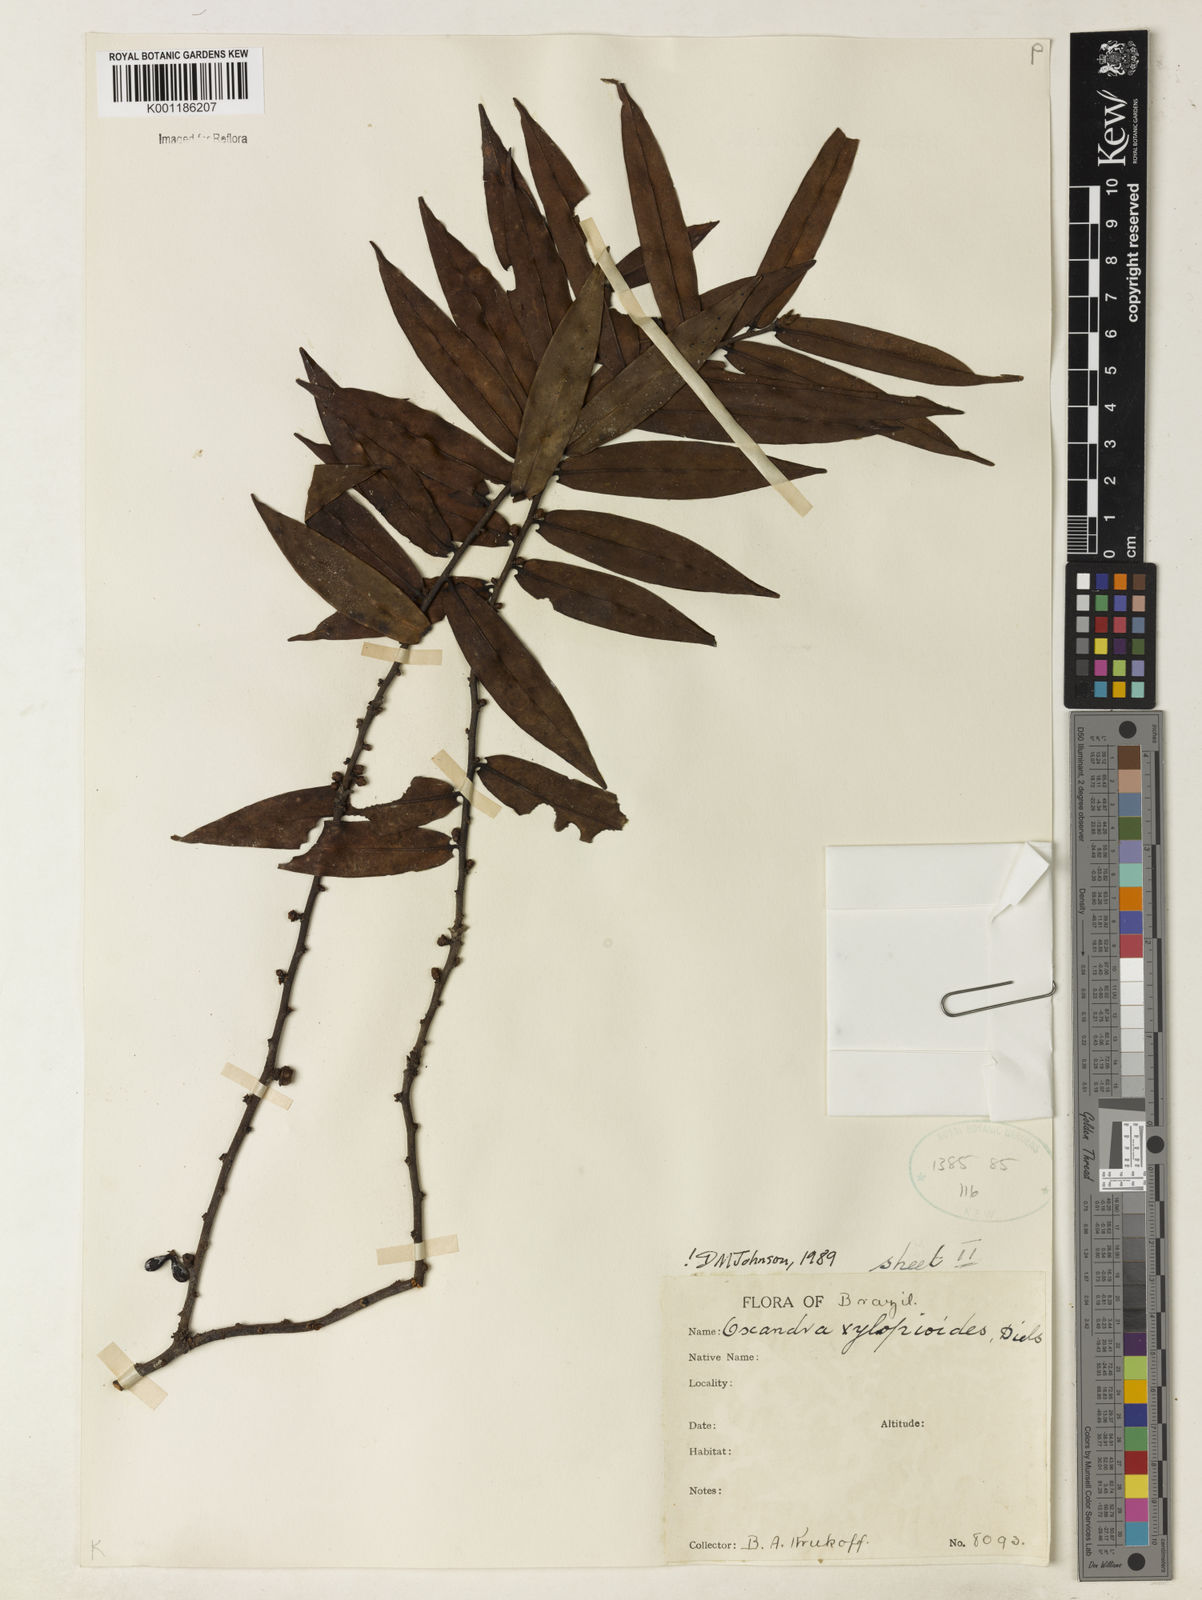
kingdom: Plantae
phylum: Tracheophyta
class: Magnoliopsida
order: Magnoliales
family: Annonaceae
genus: Oxandra
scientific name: Oxandra xylopioides
